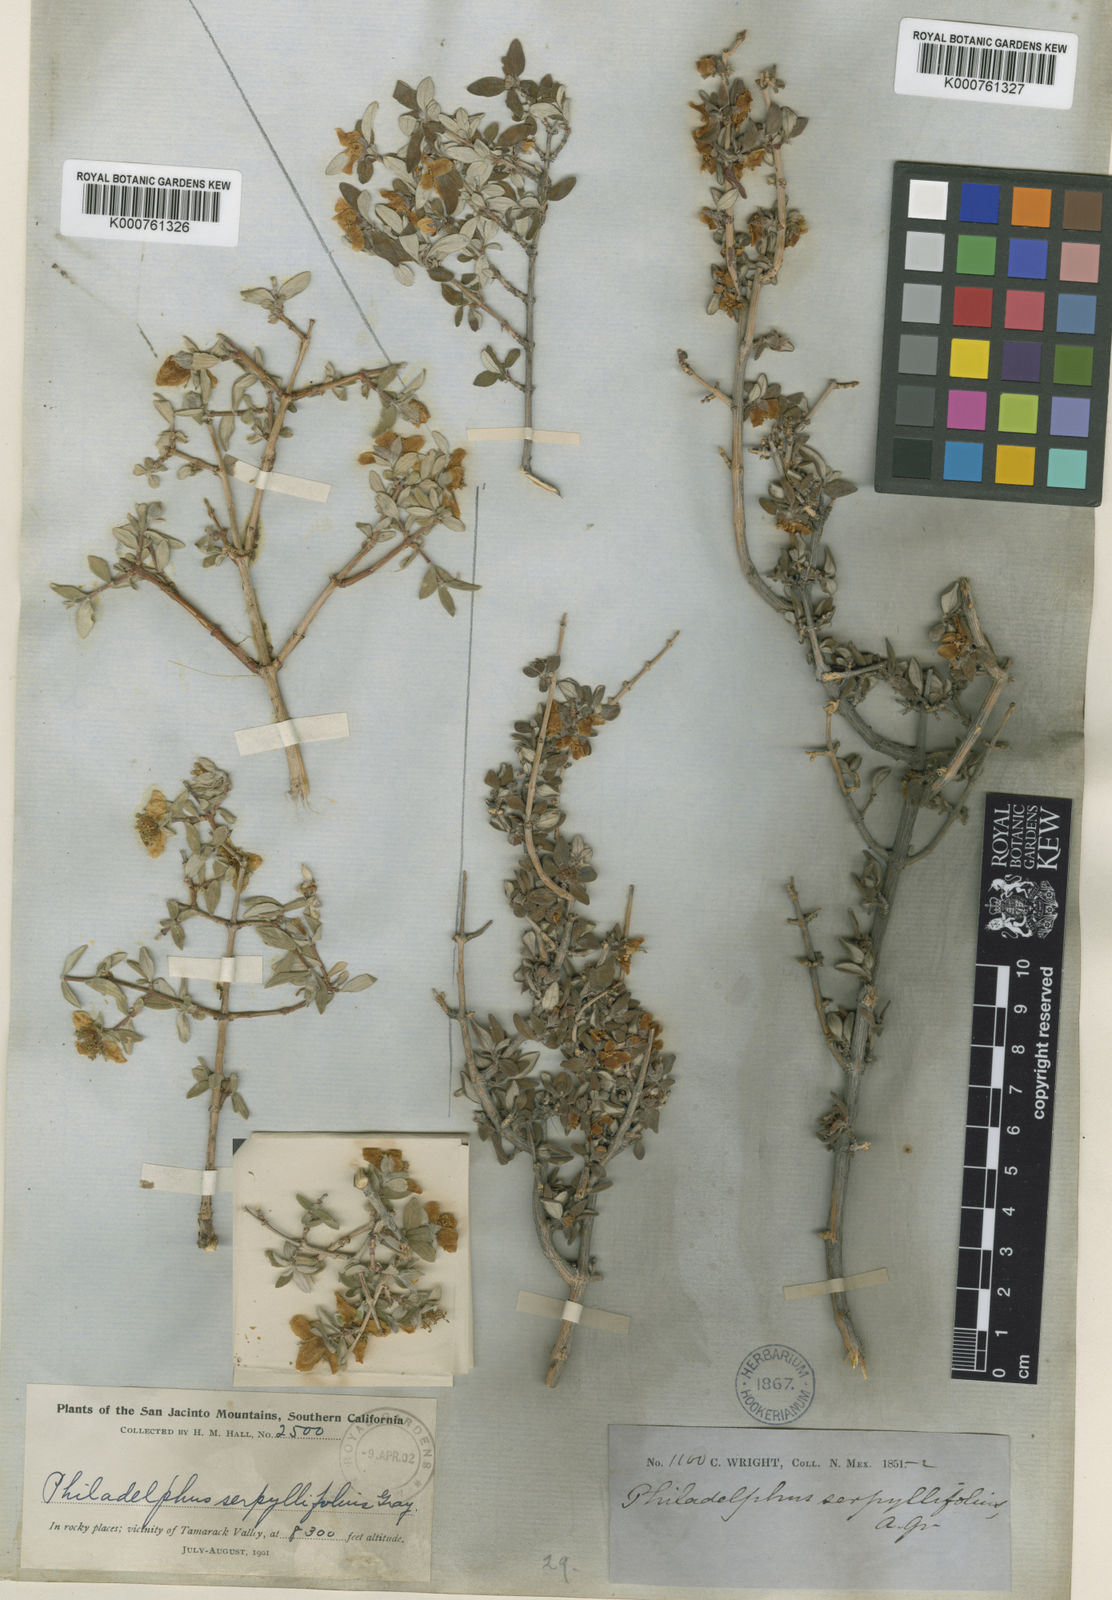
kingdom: Plantae
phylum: Tracheophyta
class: Magnoliopsida
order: Cornales
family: Hydrangeaceae
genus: Philadelphus
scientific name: Philadelphus microphyllus
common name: Desert mock orange
